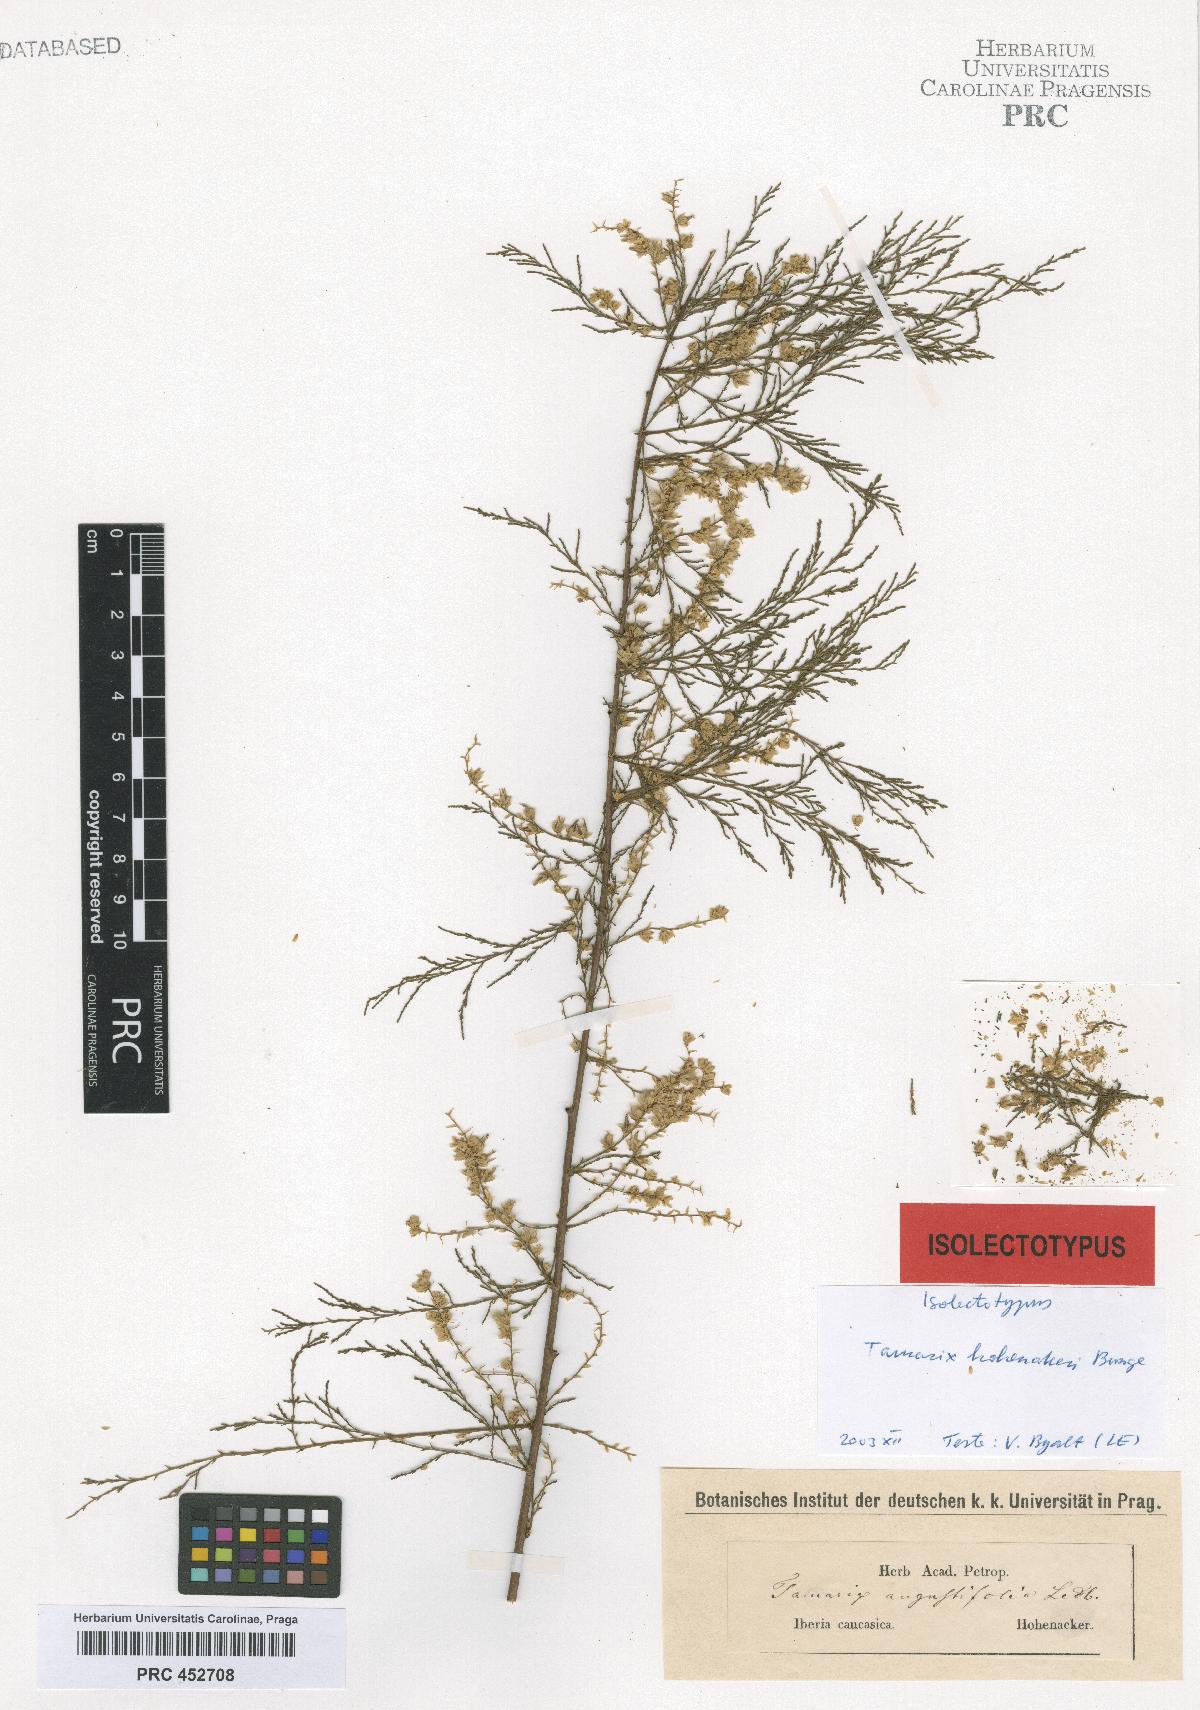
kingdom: Plantae
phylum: Tracheophyta
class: Magnoliopsida
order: Caryophyllales
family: Tamaricaceae
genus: Tamarix
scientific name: Tamarix hohenackeri
